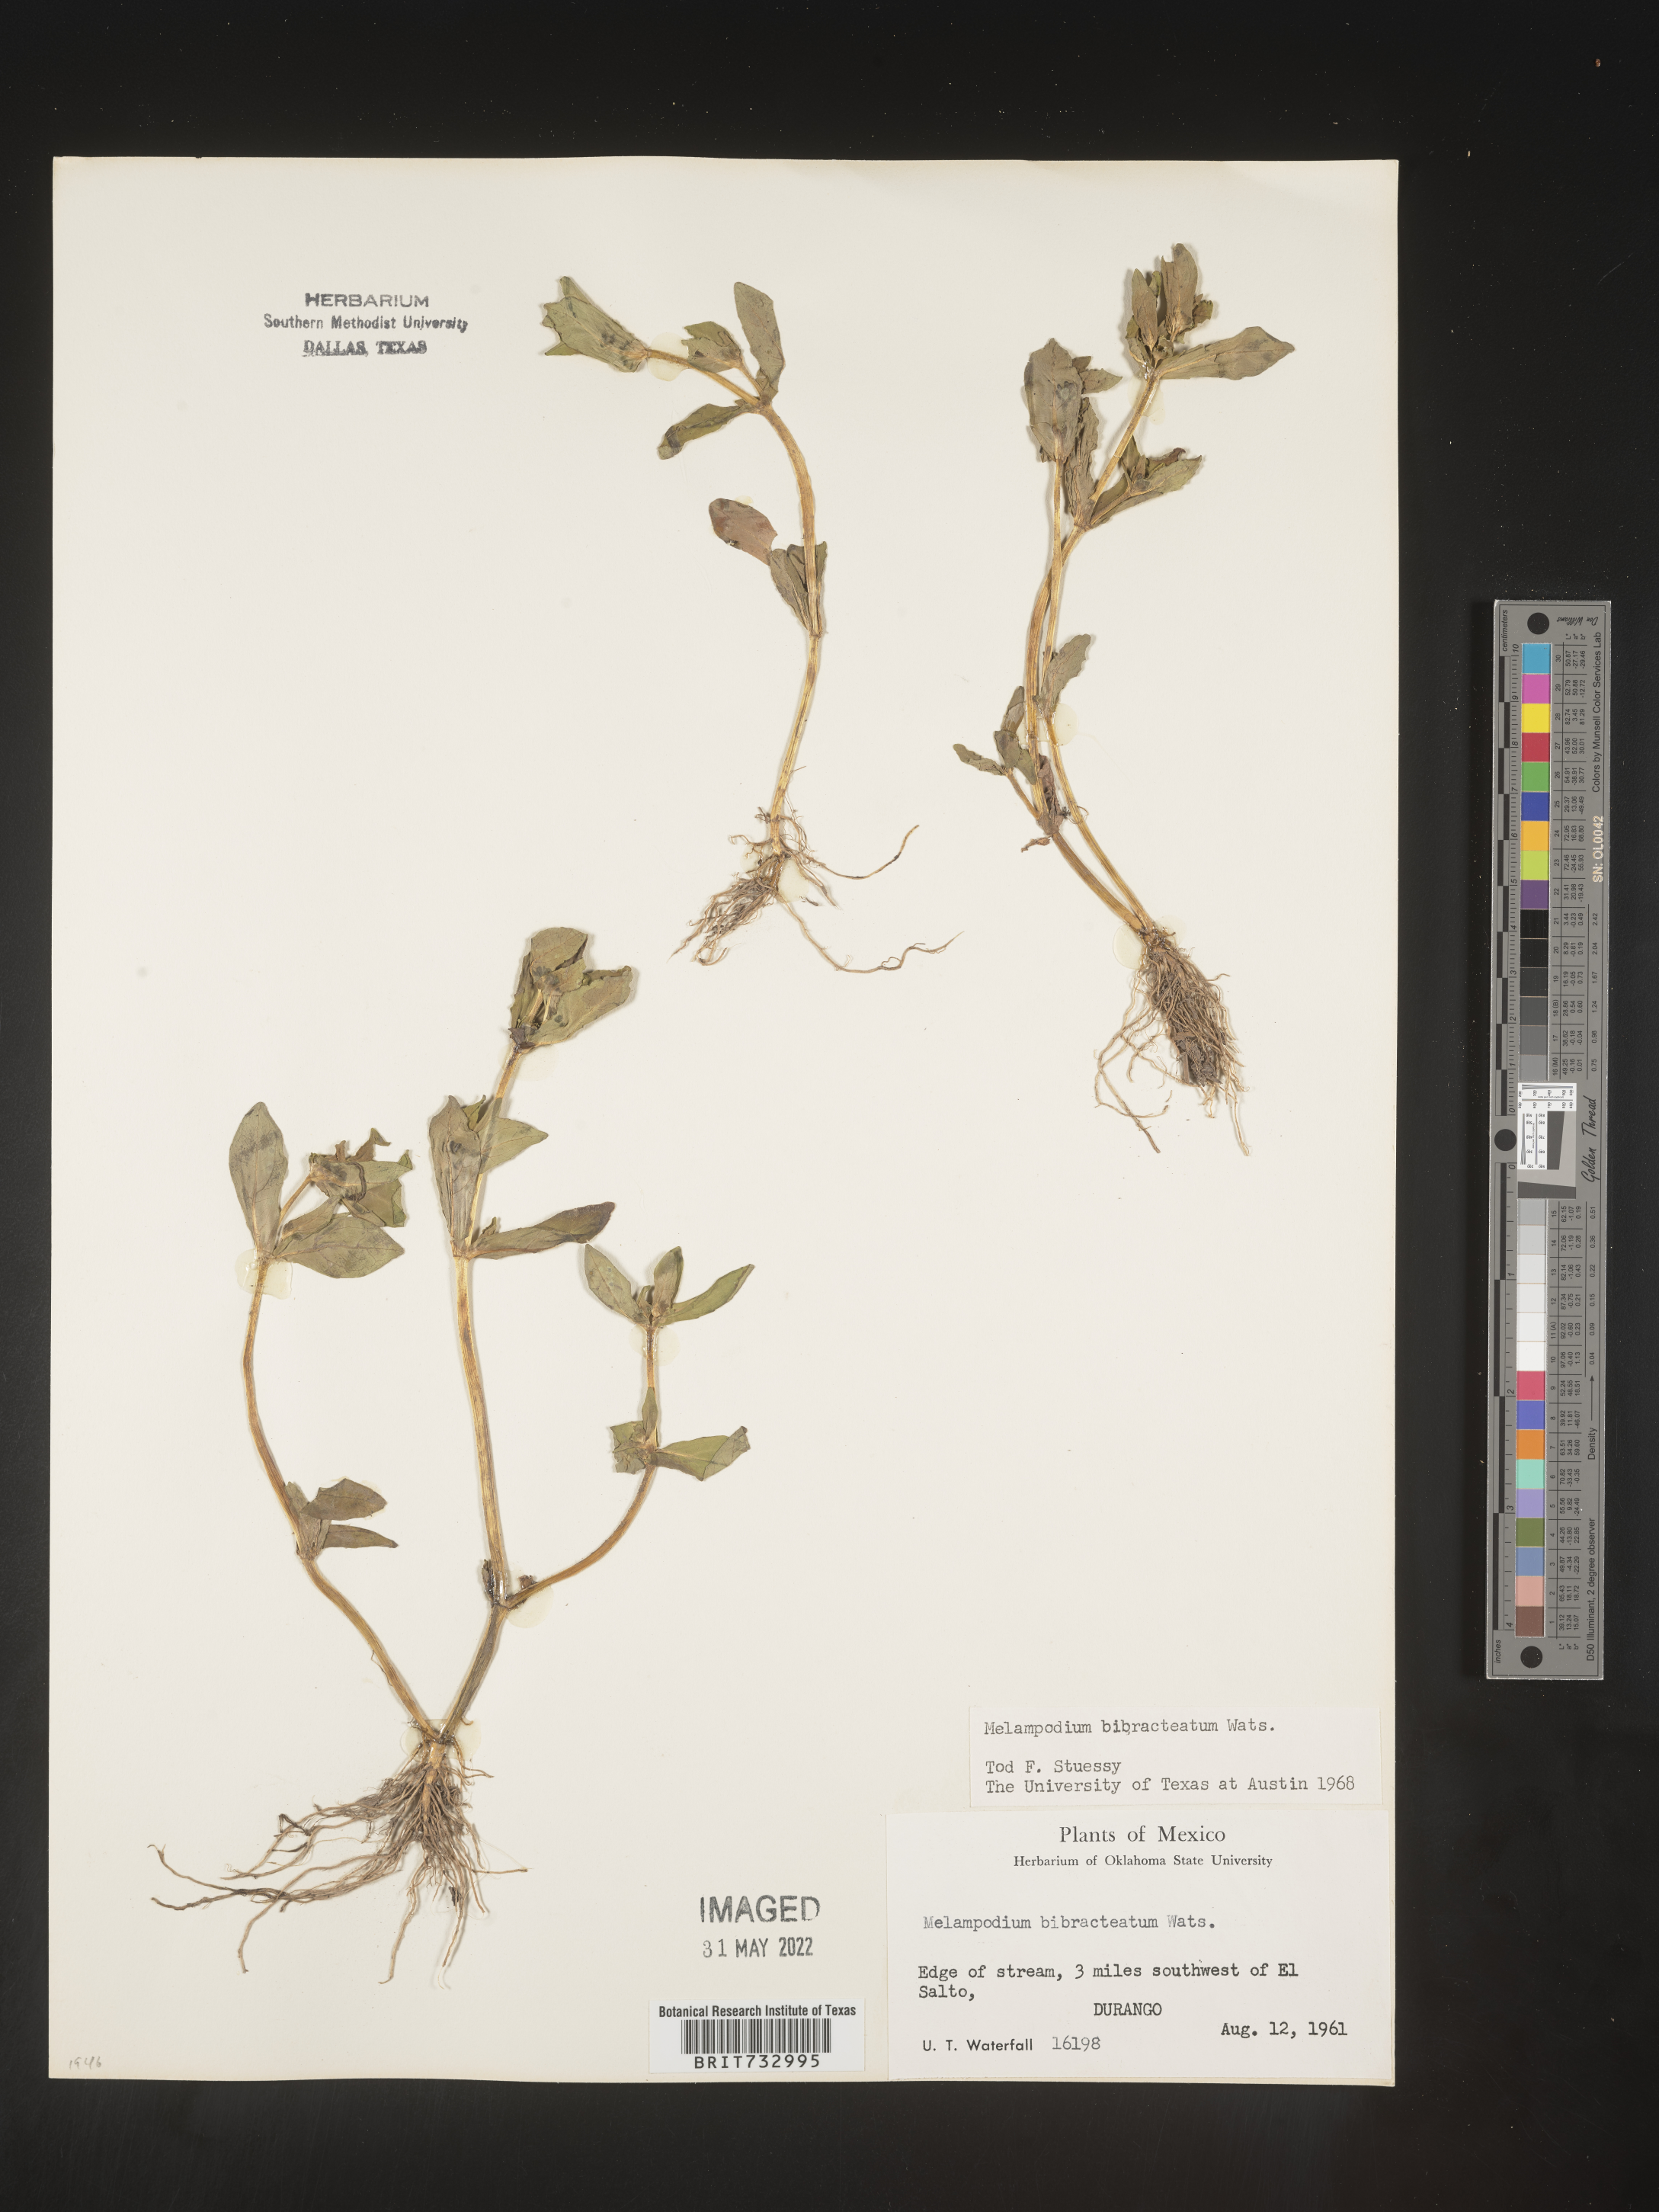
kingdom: Plantae
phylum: Tracheophyta
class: Magnoliopsida
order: Asterales
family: Asteraceae
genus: Melampodium
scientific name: Melampodium
